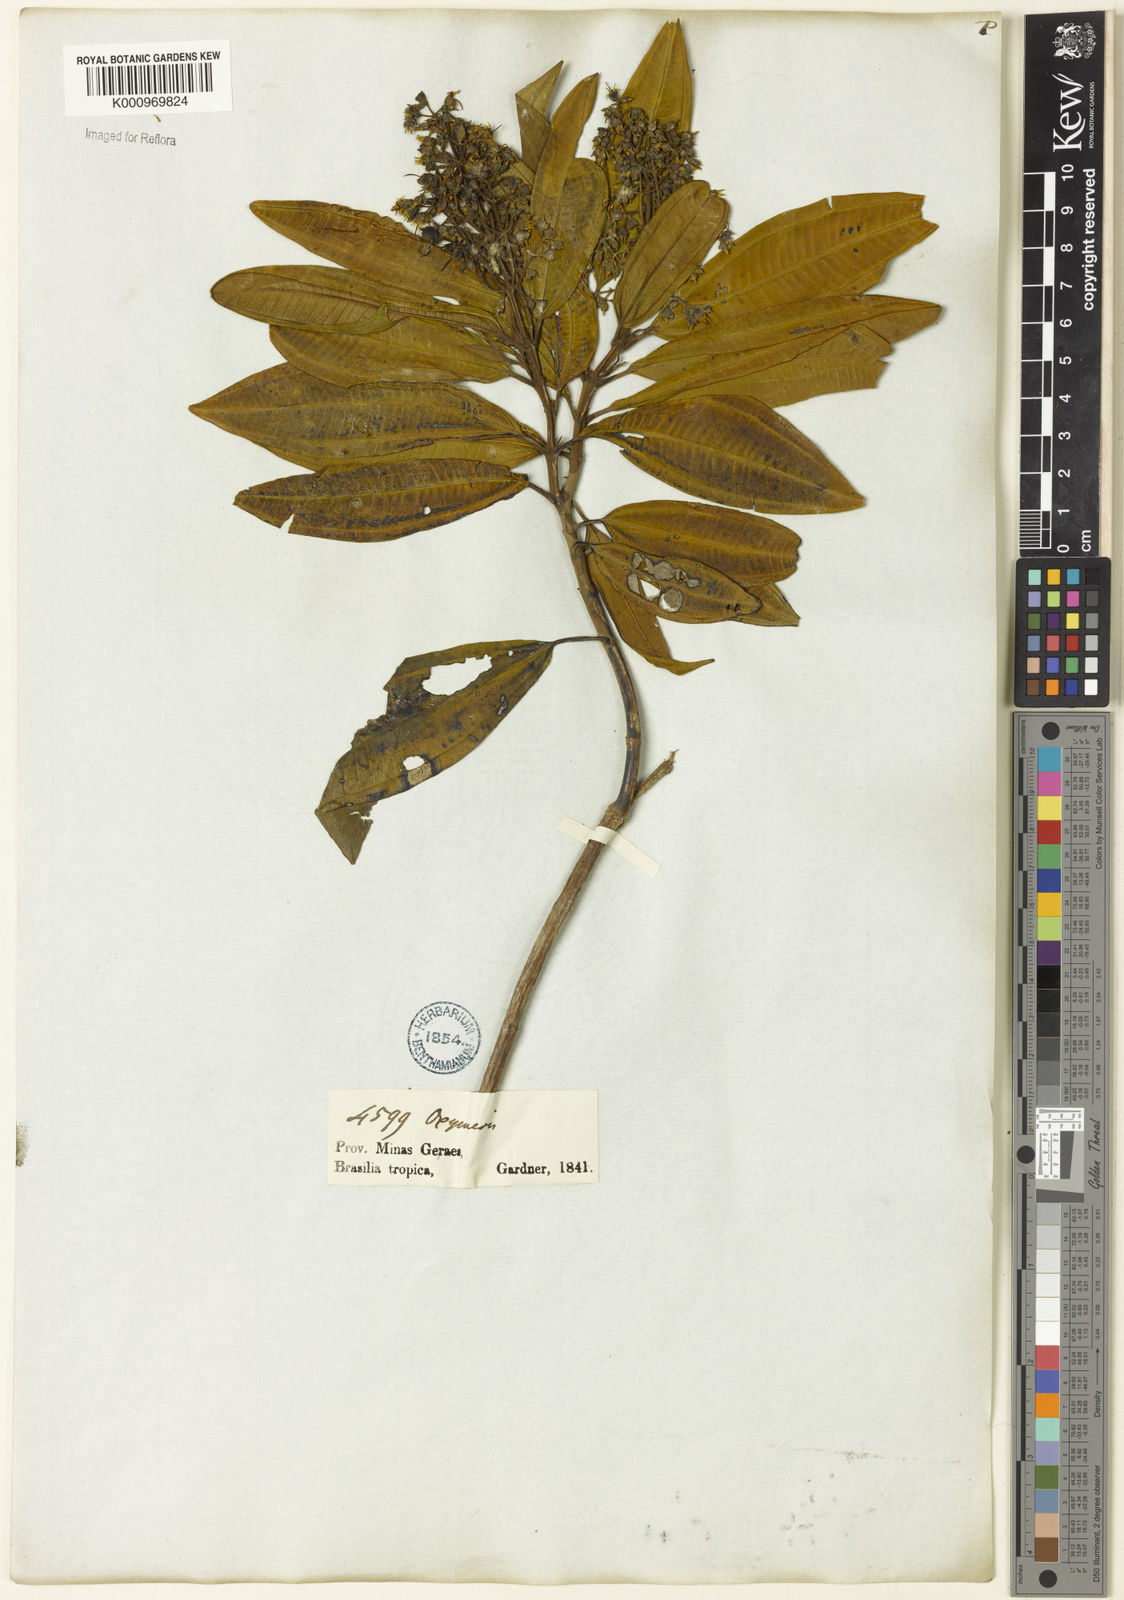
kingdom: Plantae
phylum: Tracheophyta
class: Magnoliopsida
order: Myrtales
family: Melastomataceae
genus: Miconia
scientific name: Miconia
